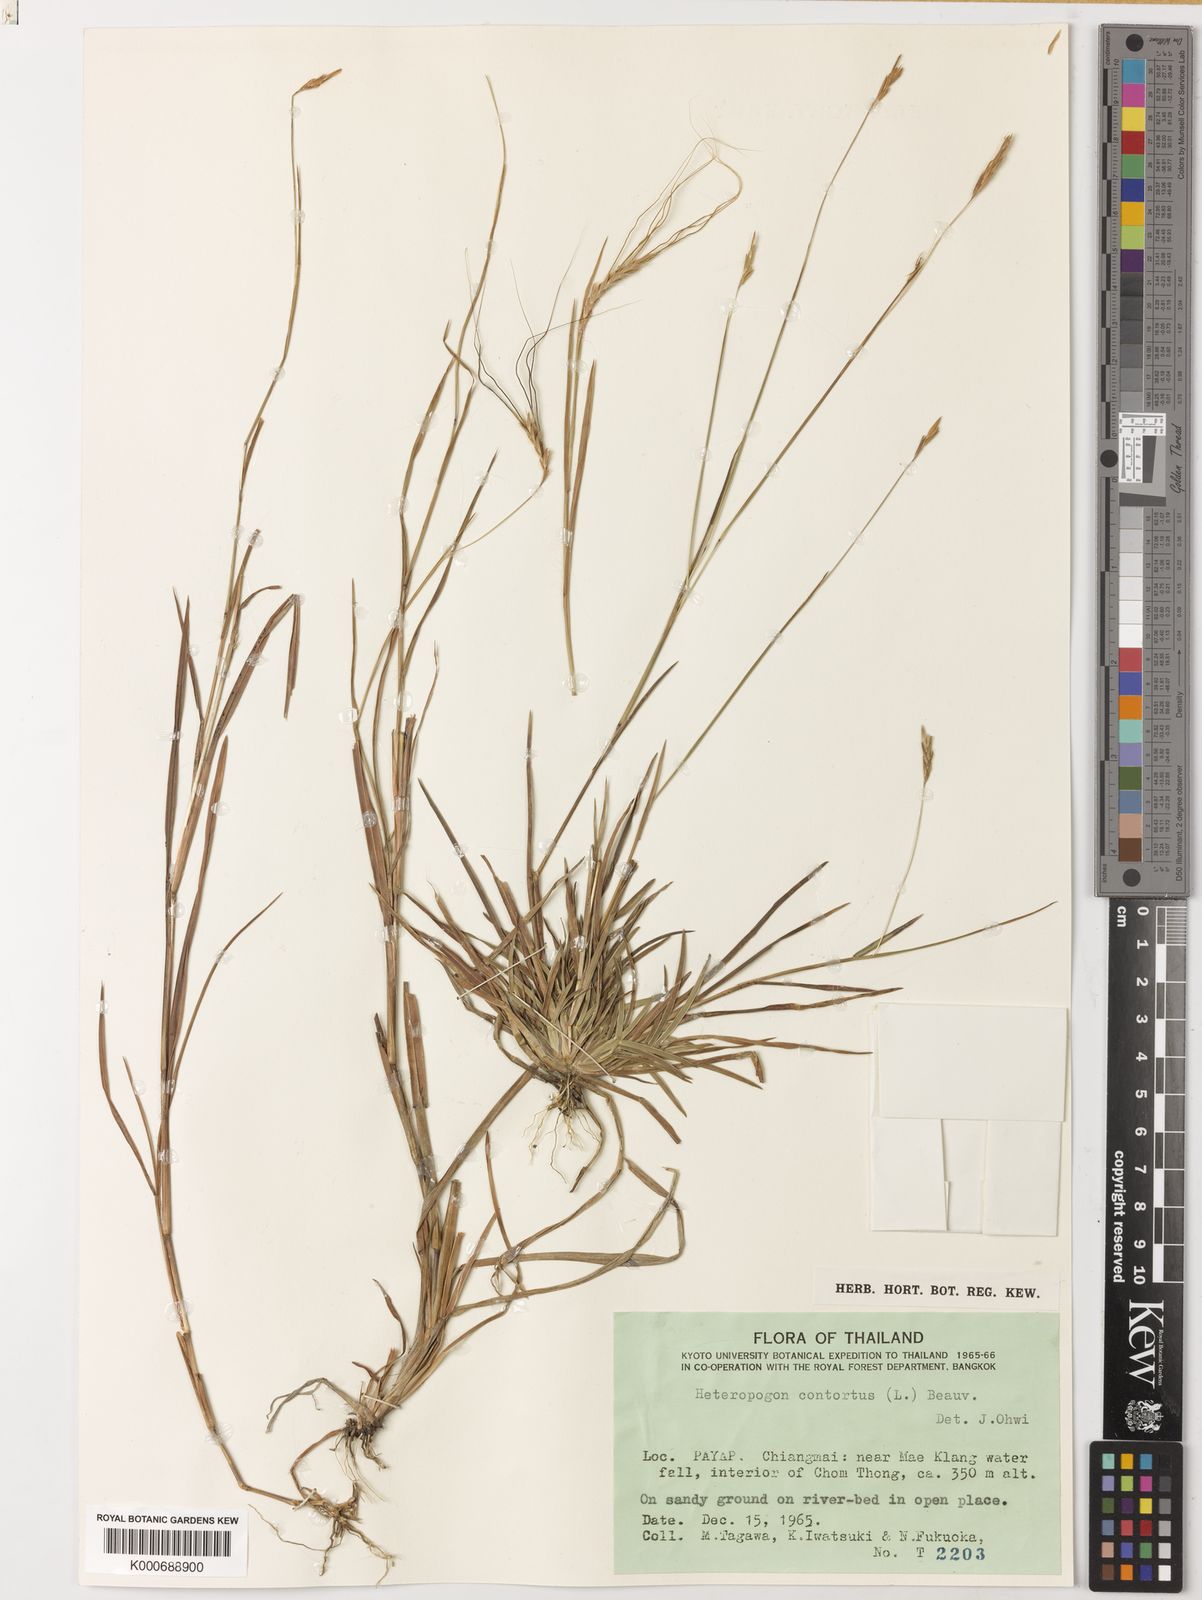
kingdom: Plantae
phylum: Tracheophyta
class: Liliopsida
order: Poales
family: Poaceae
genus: Heteropogon
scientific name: Heteropogon contortus
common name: Tanglehead
